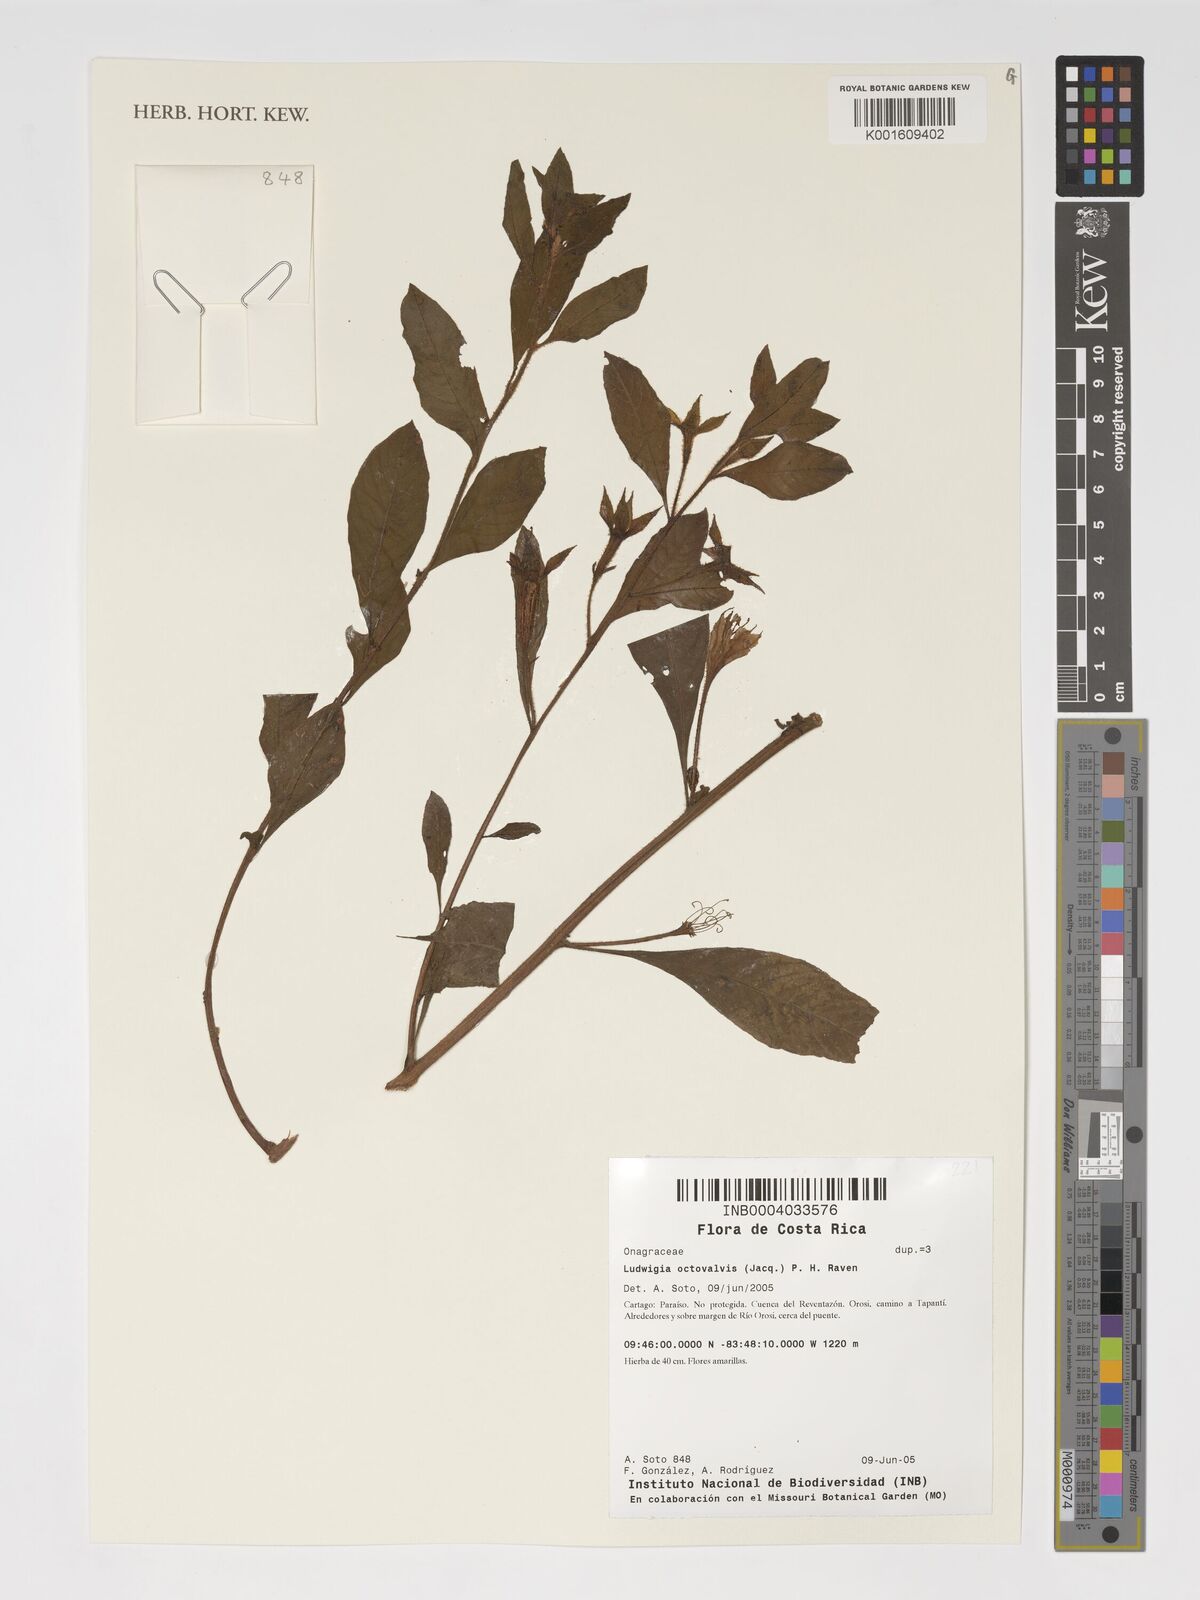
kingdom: Plantae
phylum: Tracheophyta
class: Magnoliopsida
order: Myrtales
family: Onagraceae
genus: Ludwigia
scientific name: Ludwigia octovalvis
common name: Water-primrose
